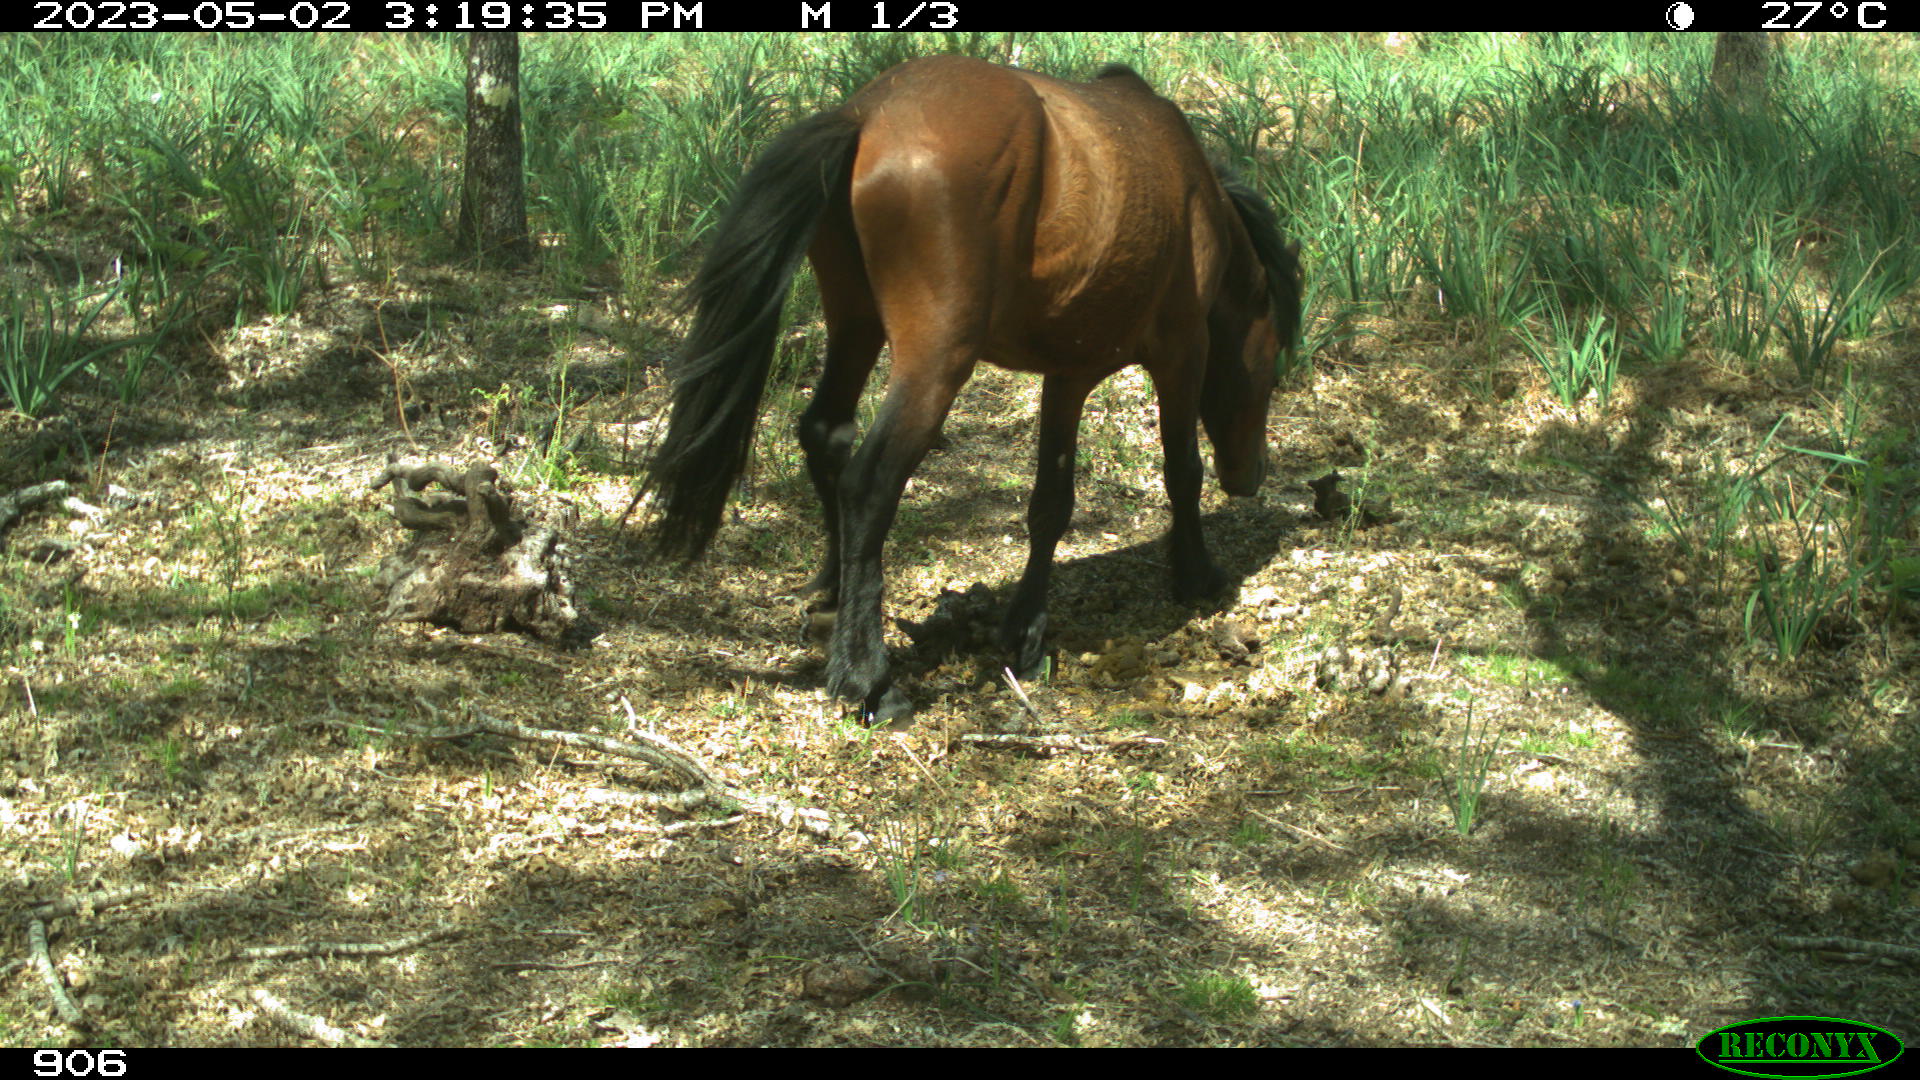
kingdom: Animalia
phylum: Chordata
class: Mammalia
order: Perissodactyla
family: Equidae
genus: Equus
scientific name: Equus caballus
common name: Horse
